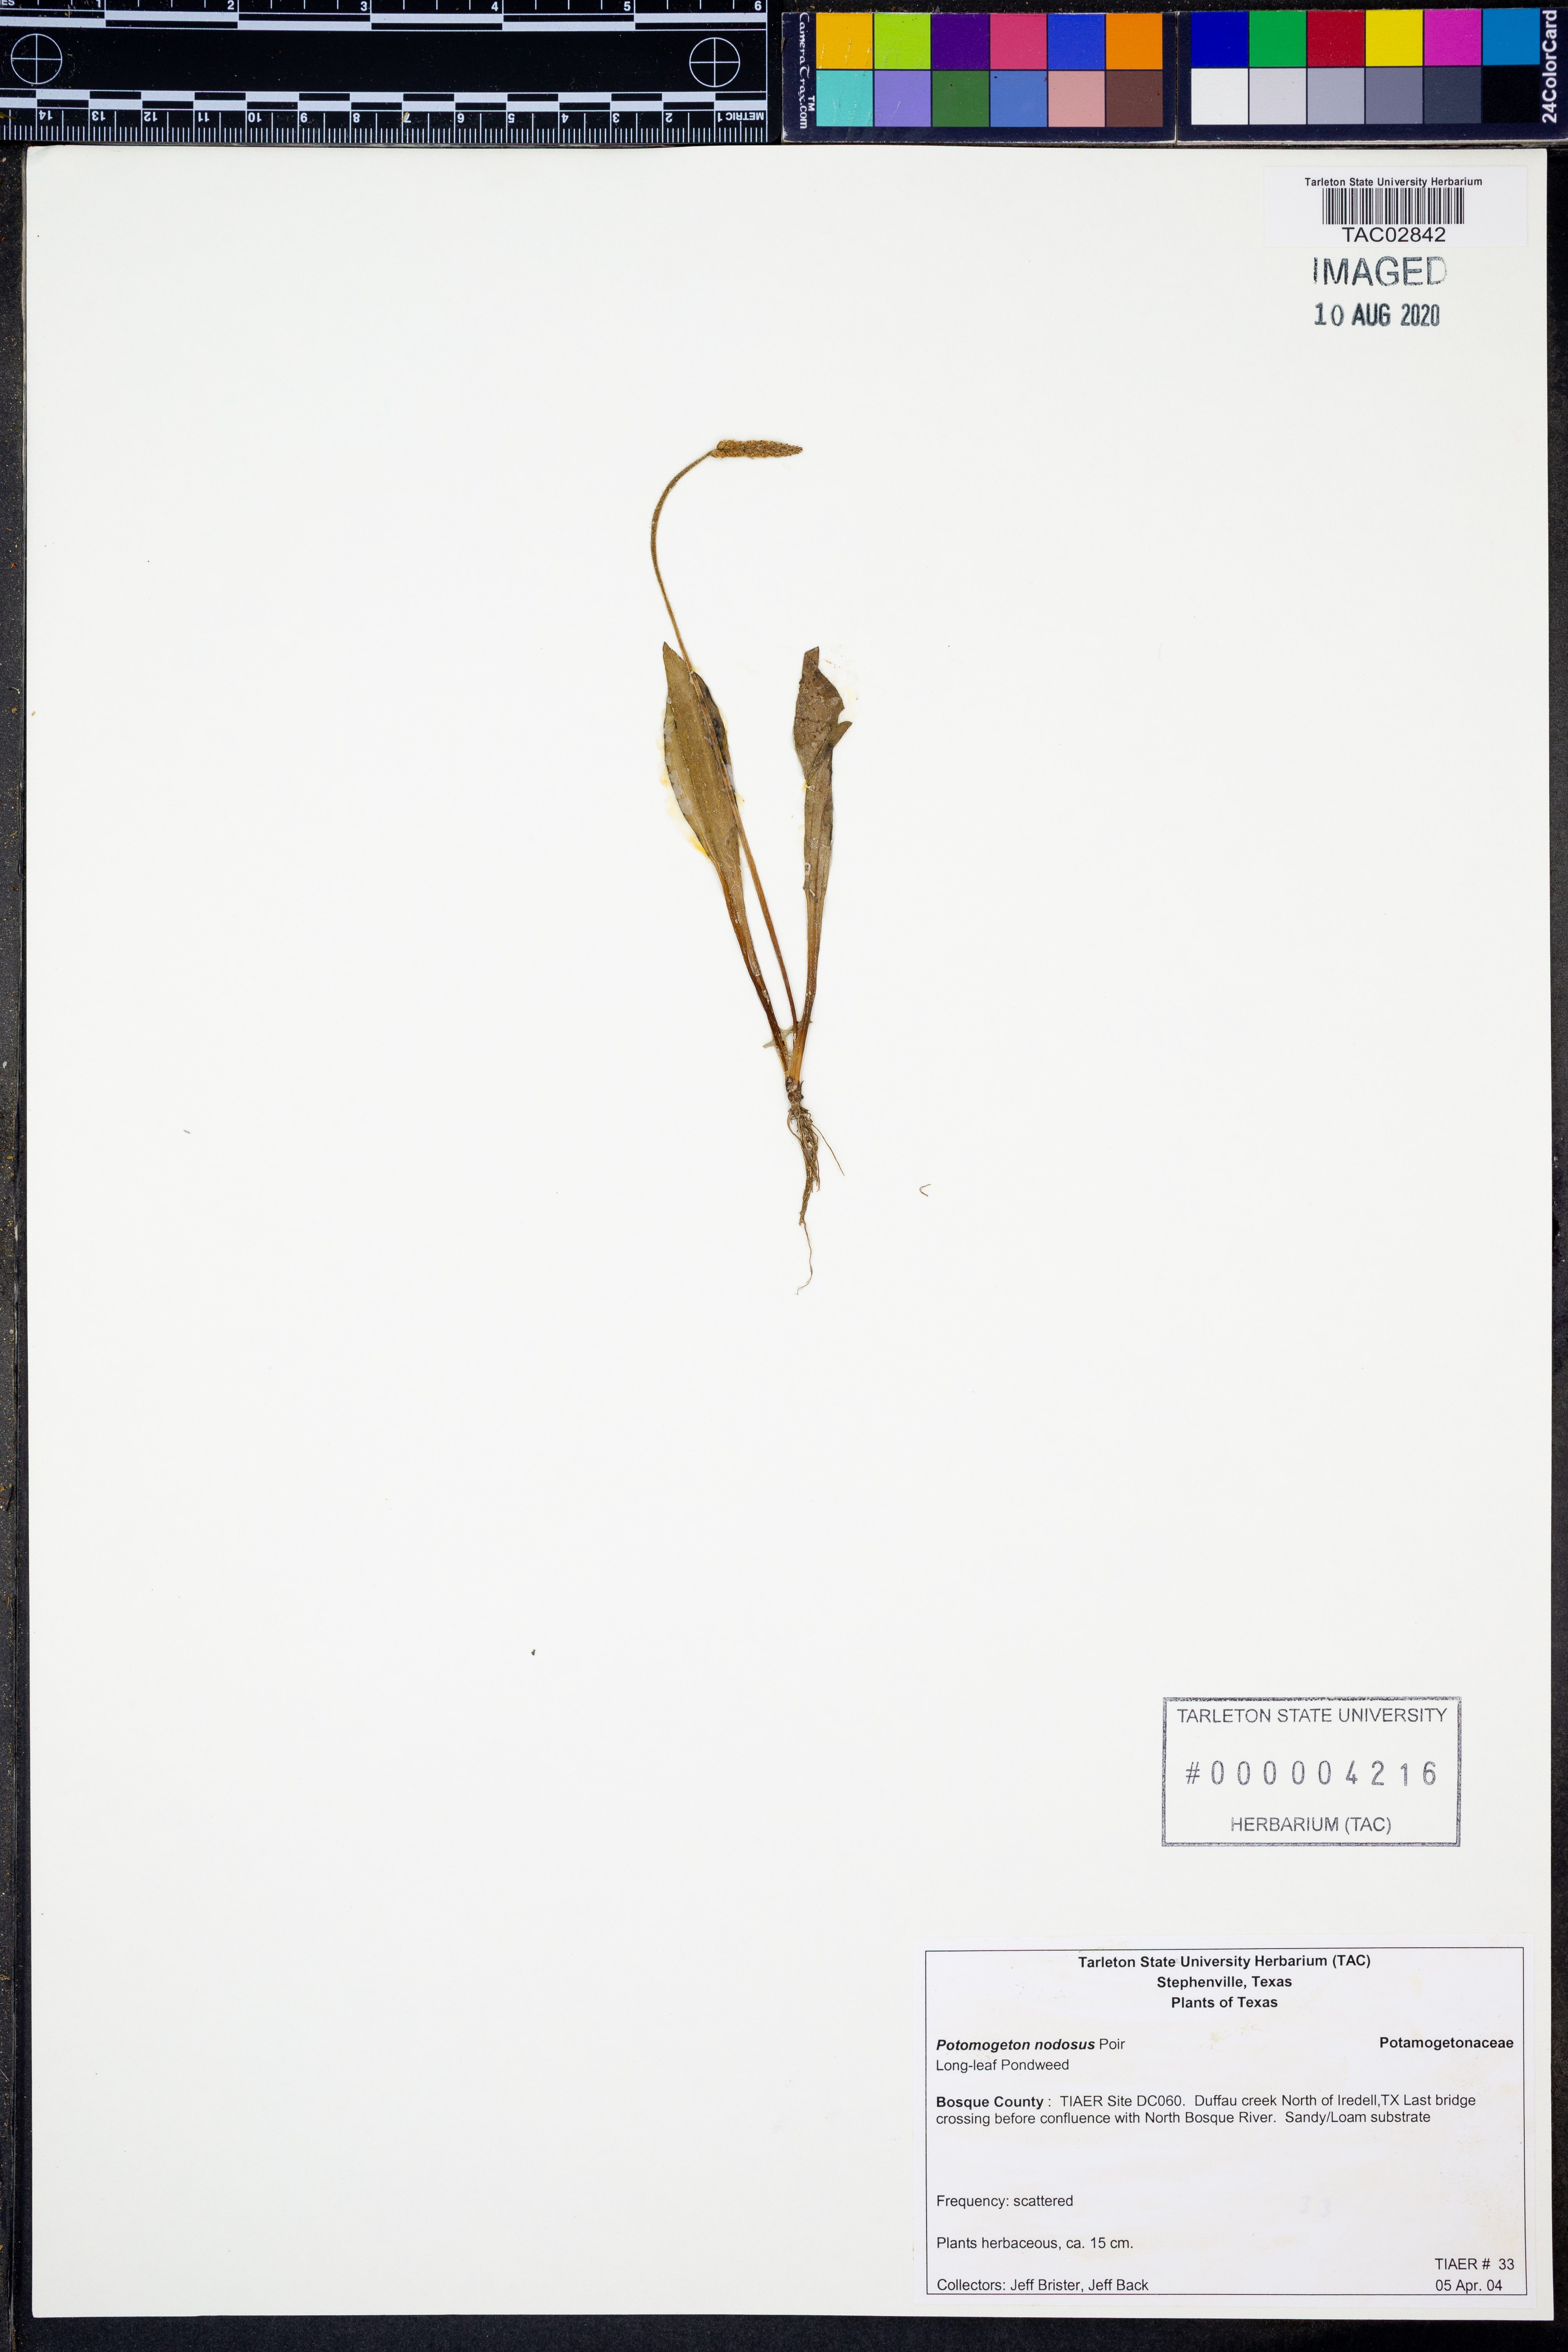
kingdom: Plantae
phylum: Tracheophyta
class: Liliopsida
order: Alismatales
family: Potamogetonaceae
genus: Potamogeton
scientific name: Potamogeton nodosus
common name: Loddon pondweed
